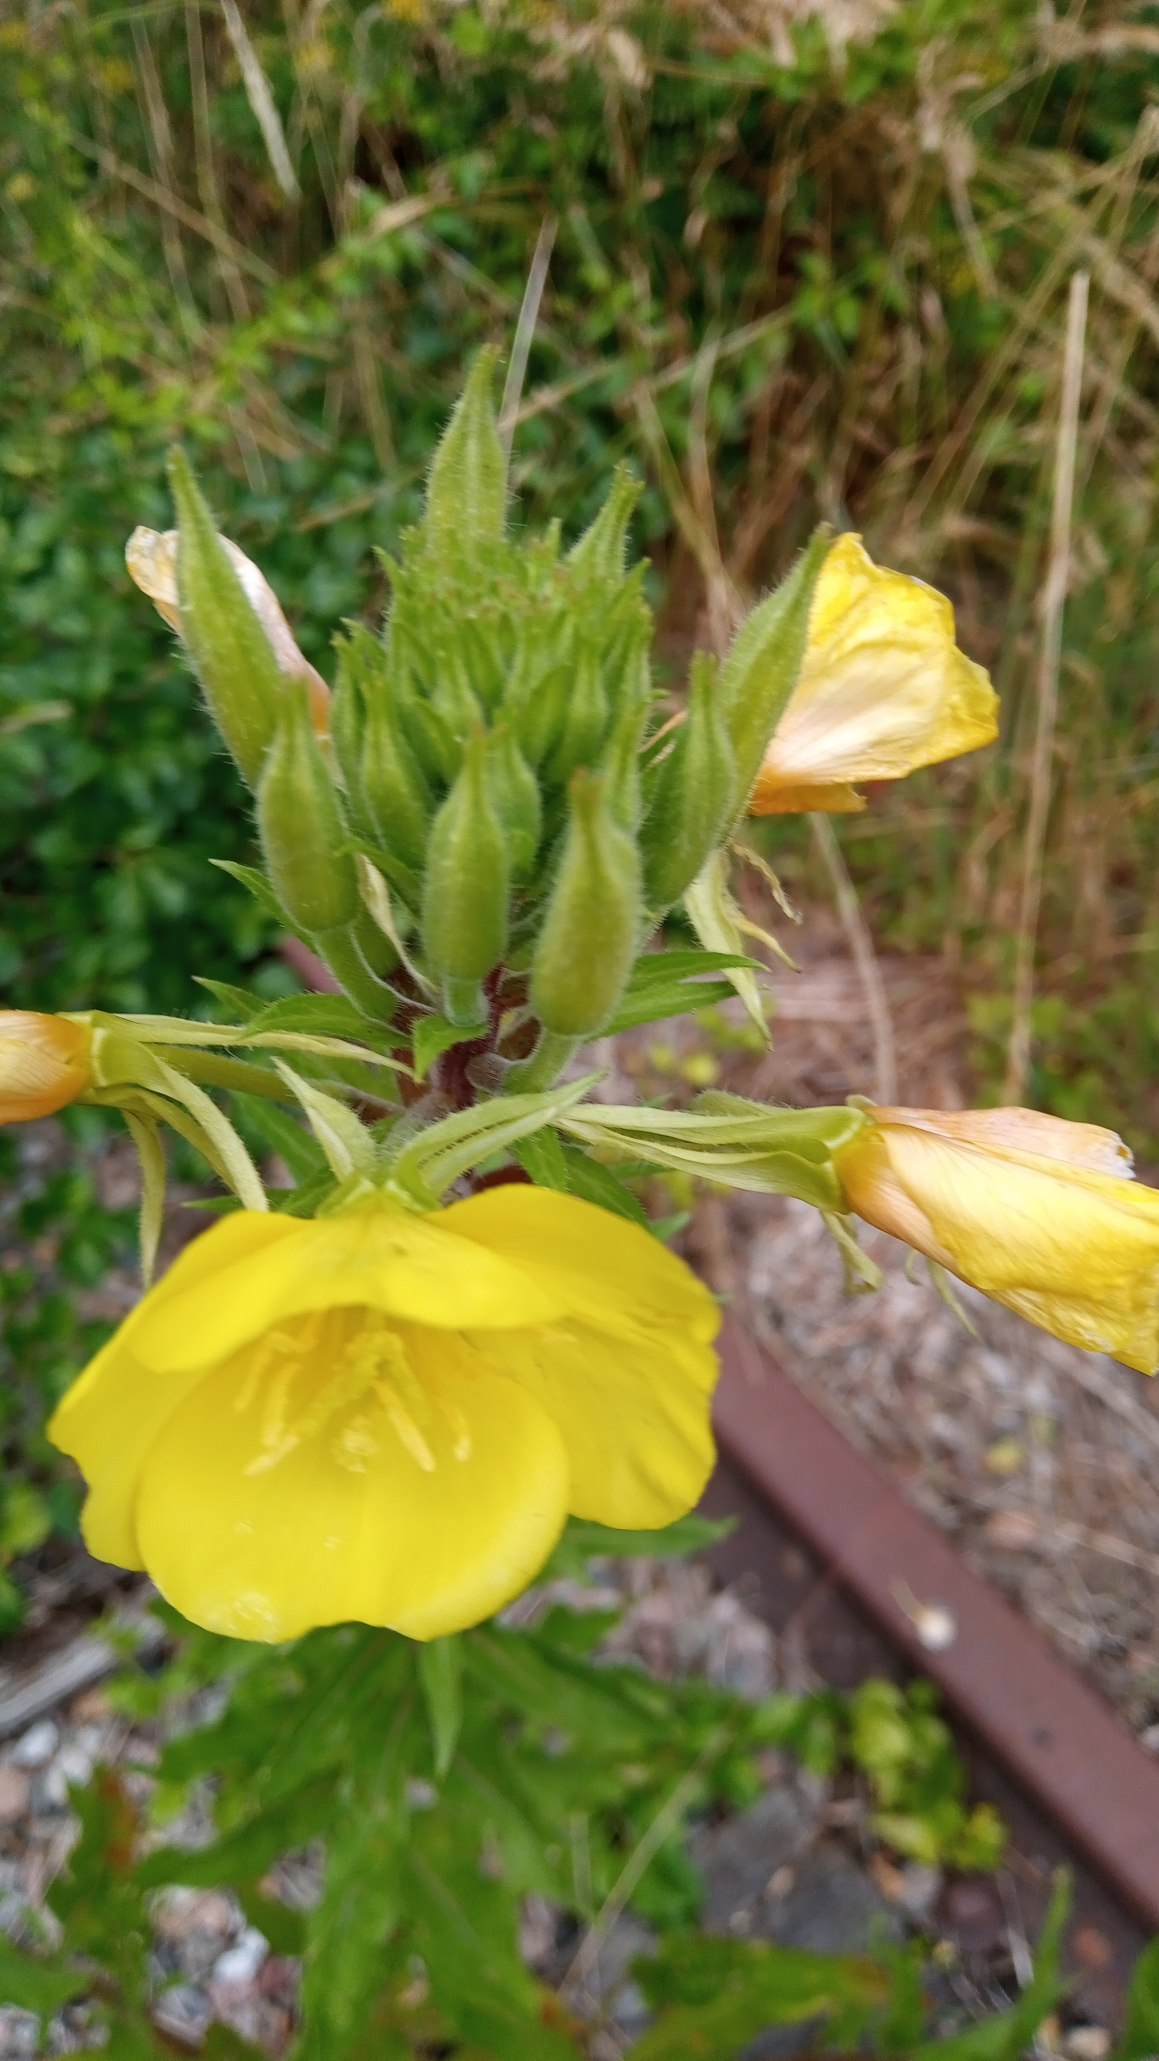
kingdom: Plantae
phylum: Tracheophyta
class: Magnoliopsida
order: Myrtales
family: Onagraceae
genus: Oenothera
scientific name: Oenothera
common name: Natlysslægten
